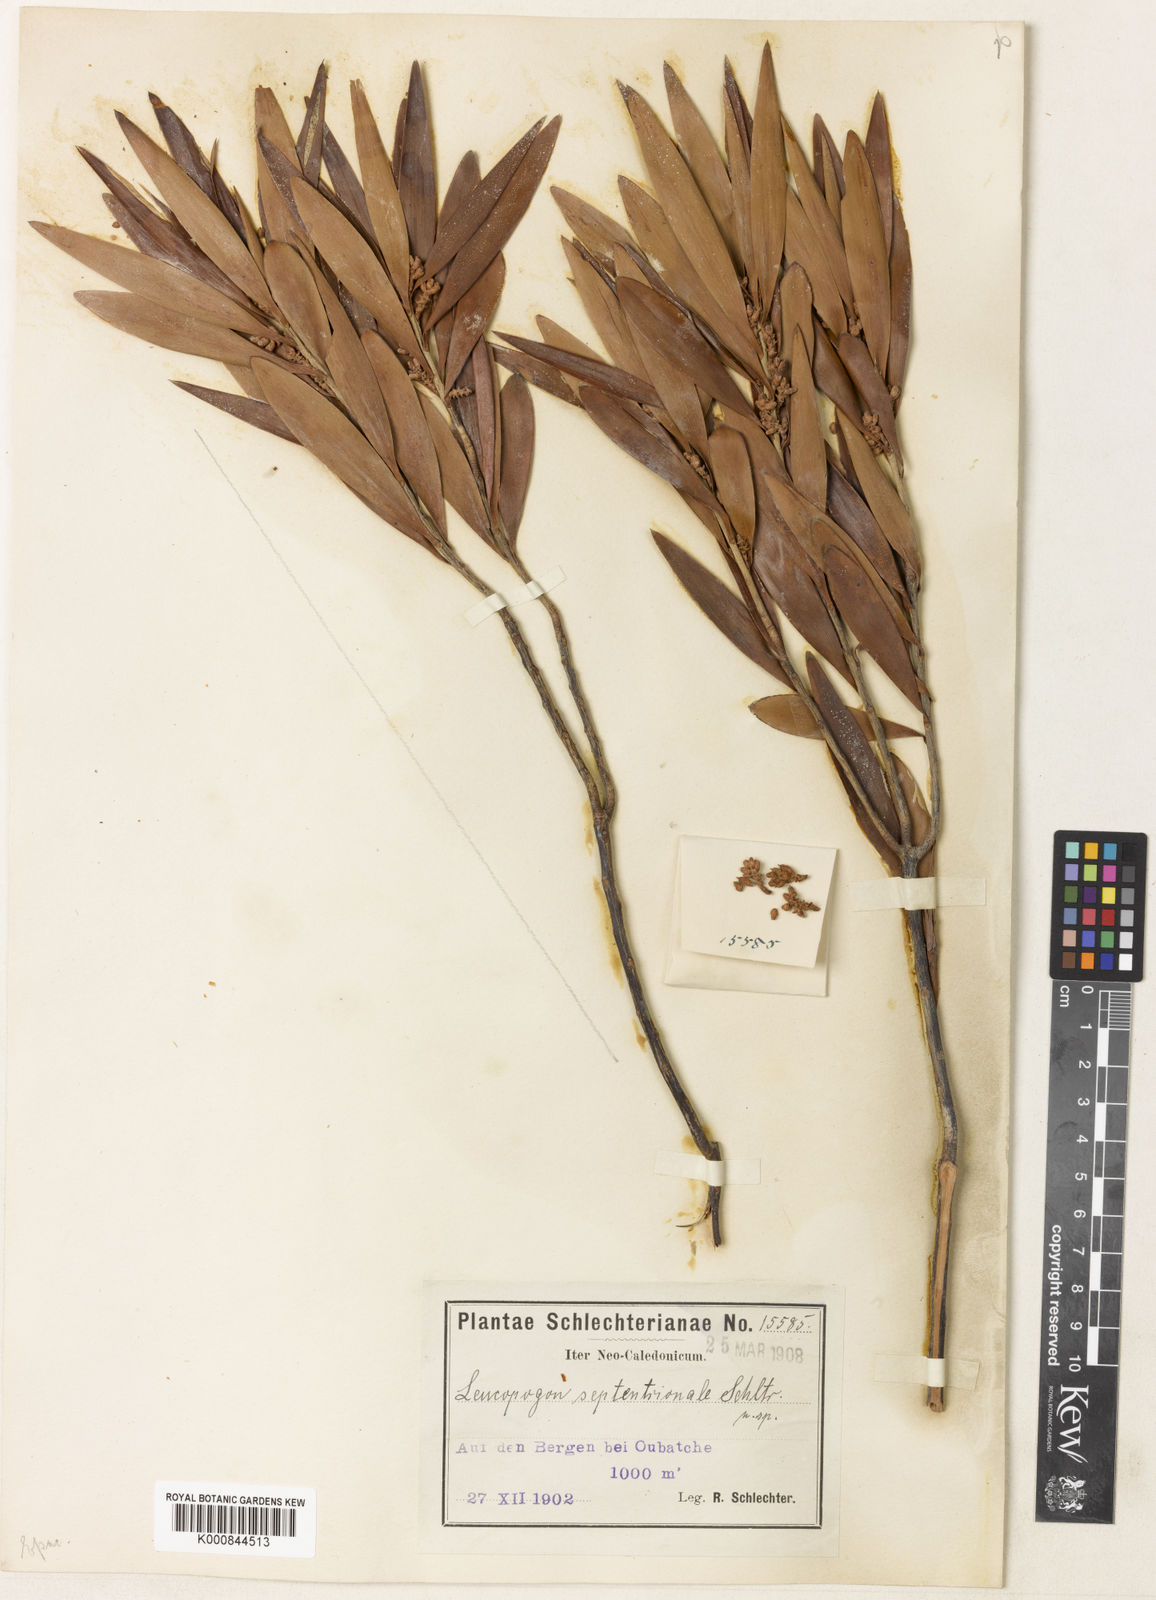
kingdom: Plantae
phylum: Tracheophyta
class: Magnoliopsida
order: Ericales
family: Ericaceae
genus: Styphelia
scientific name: Styphelia cymbulae
